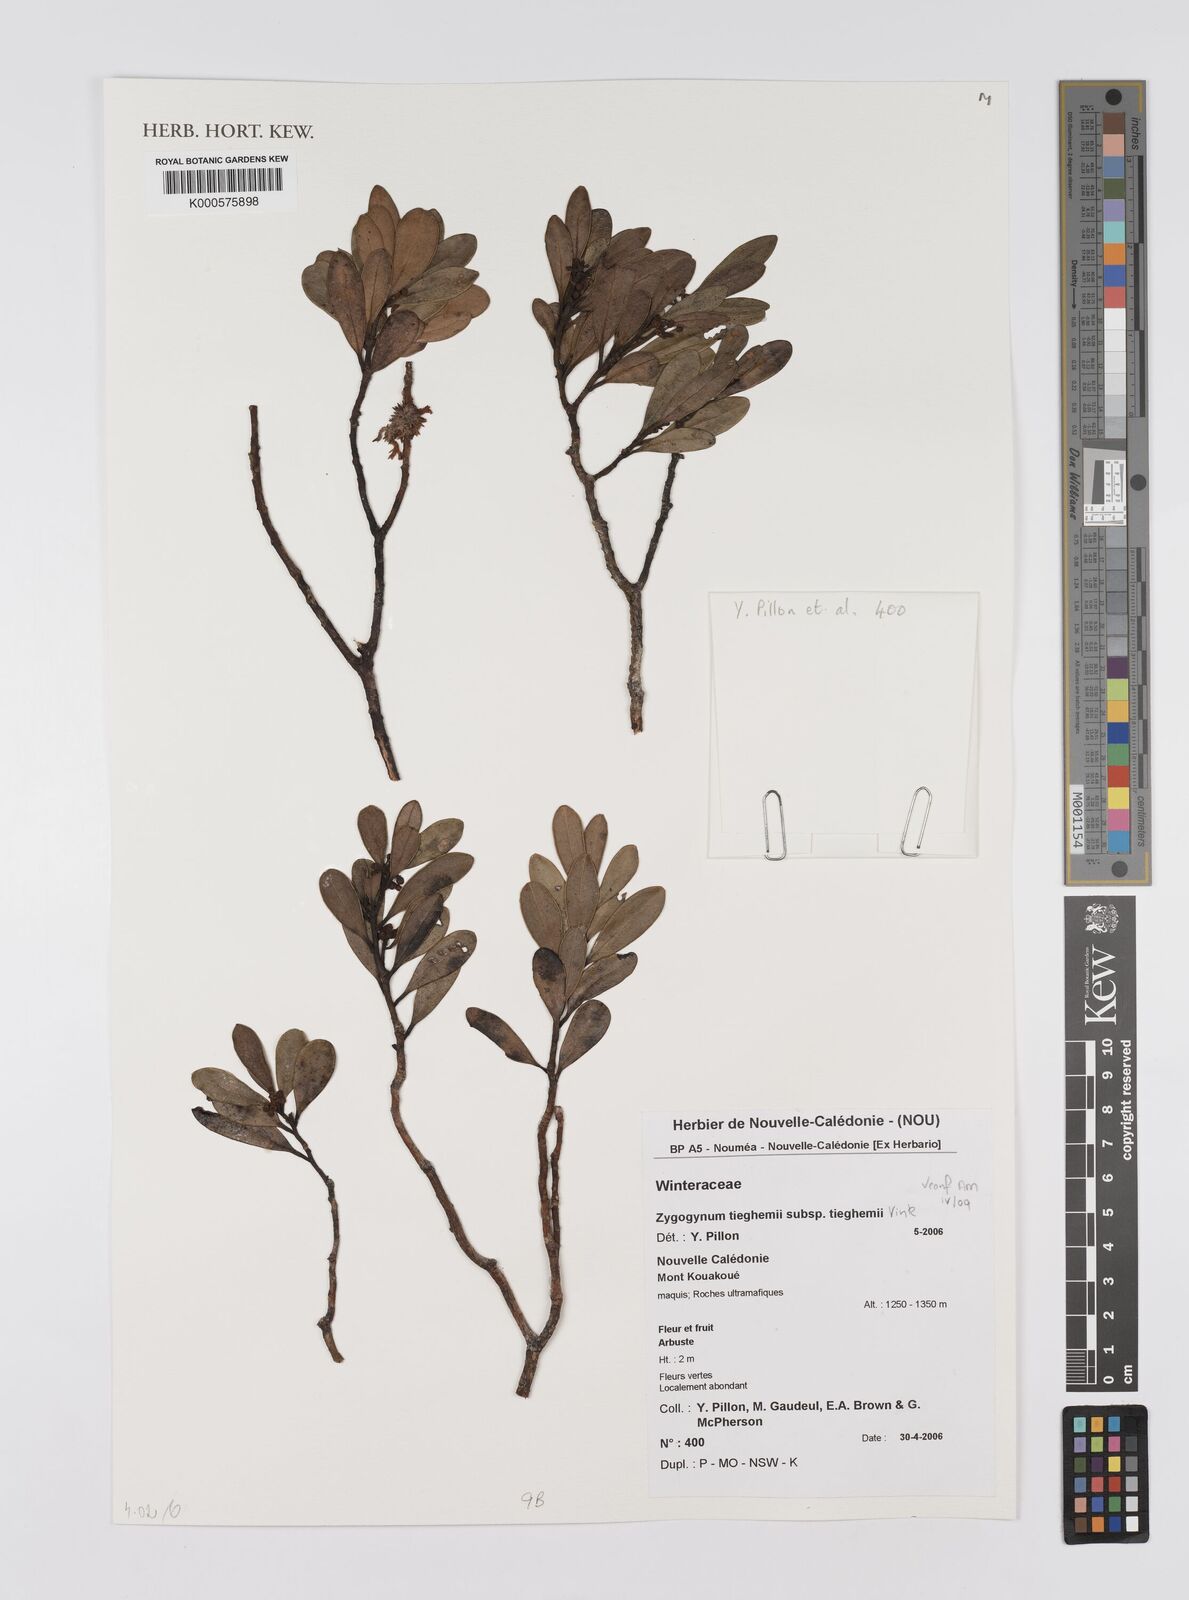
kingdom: Plantae
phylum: Tracheophyta
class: Magnoliopsida
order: Canellales
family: Winteraceae
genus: Zygogynum
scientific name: Zygogynum tieghemii
